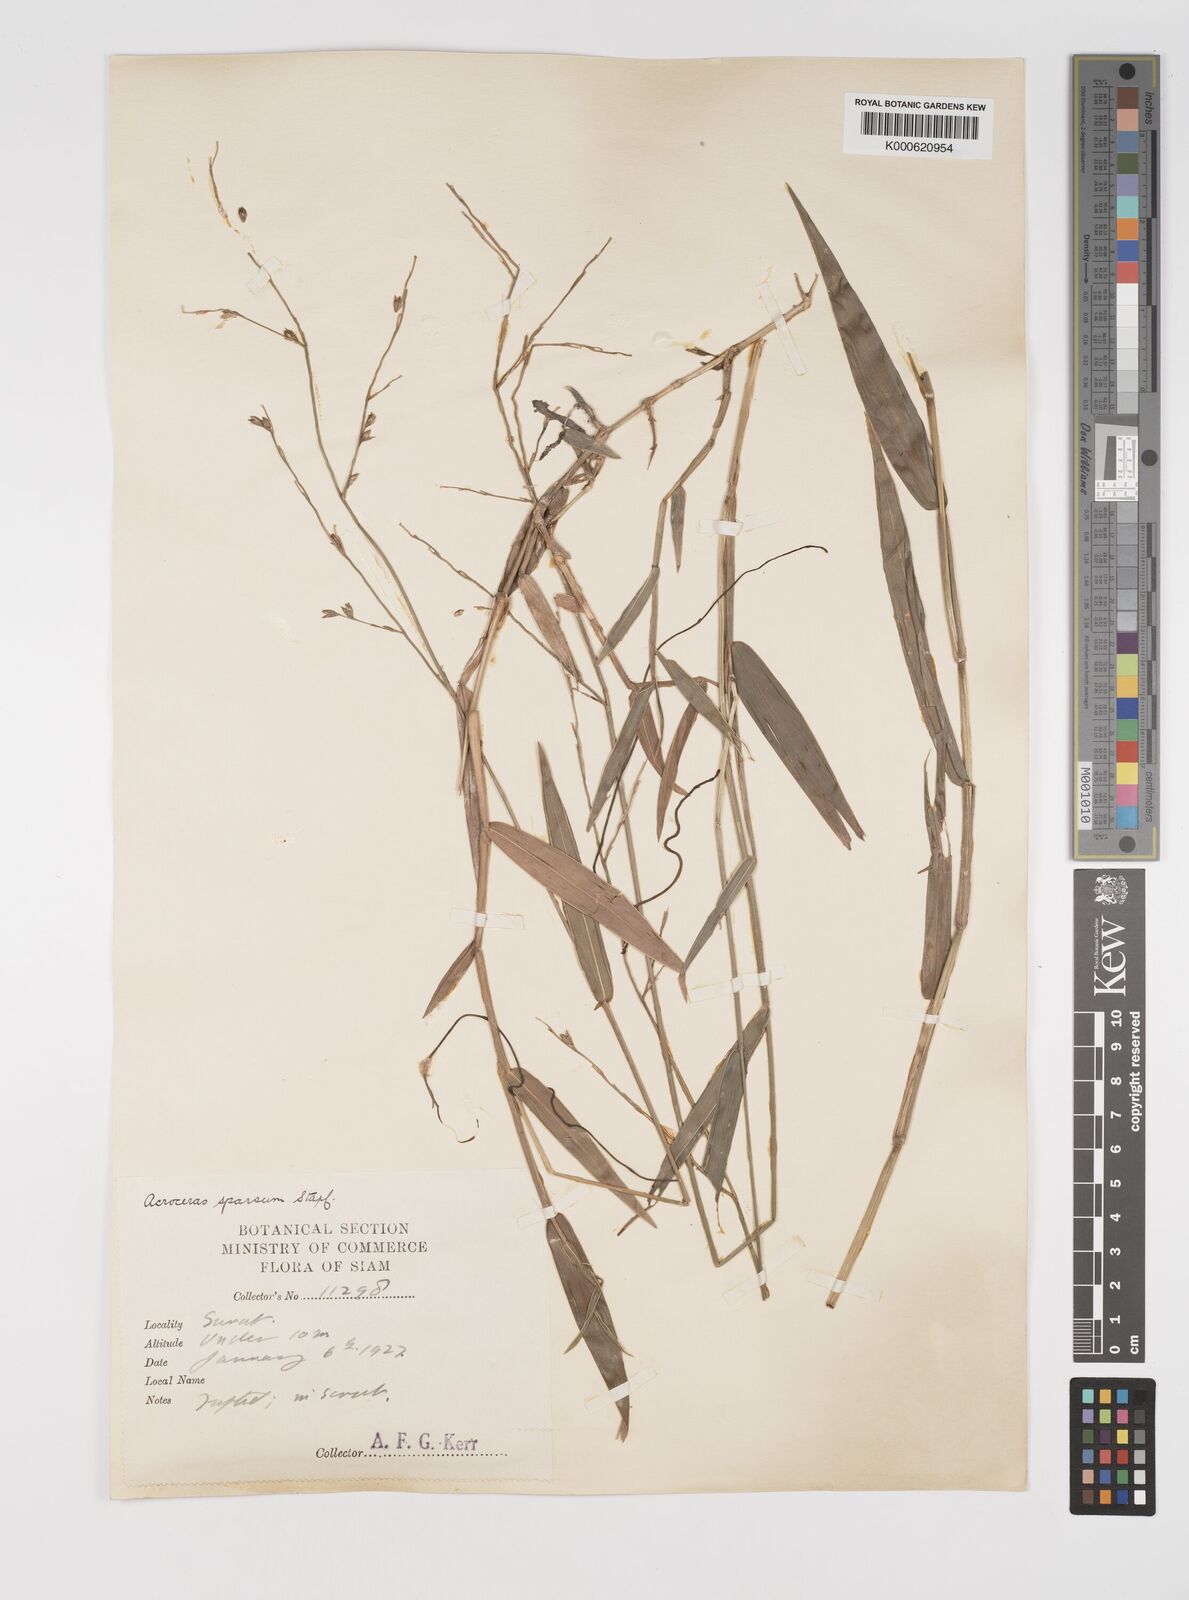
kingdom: Plantae
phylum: Tracheophyta
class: Liliopsida
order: Poales
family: Poaceae
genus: Acroceras
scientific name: Acroceras
